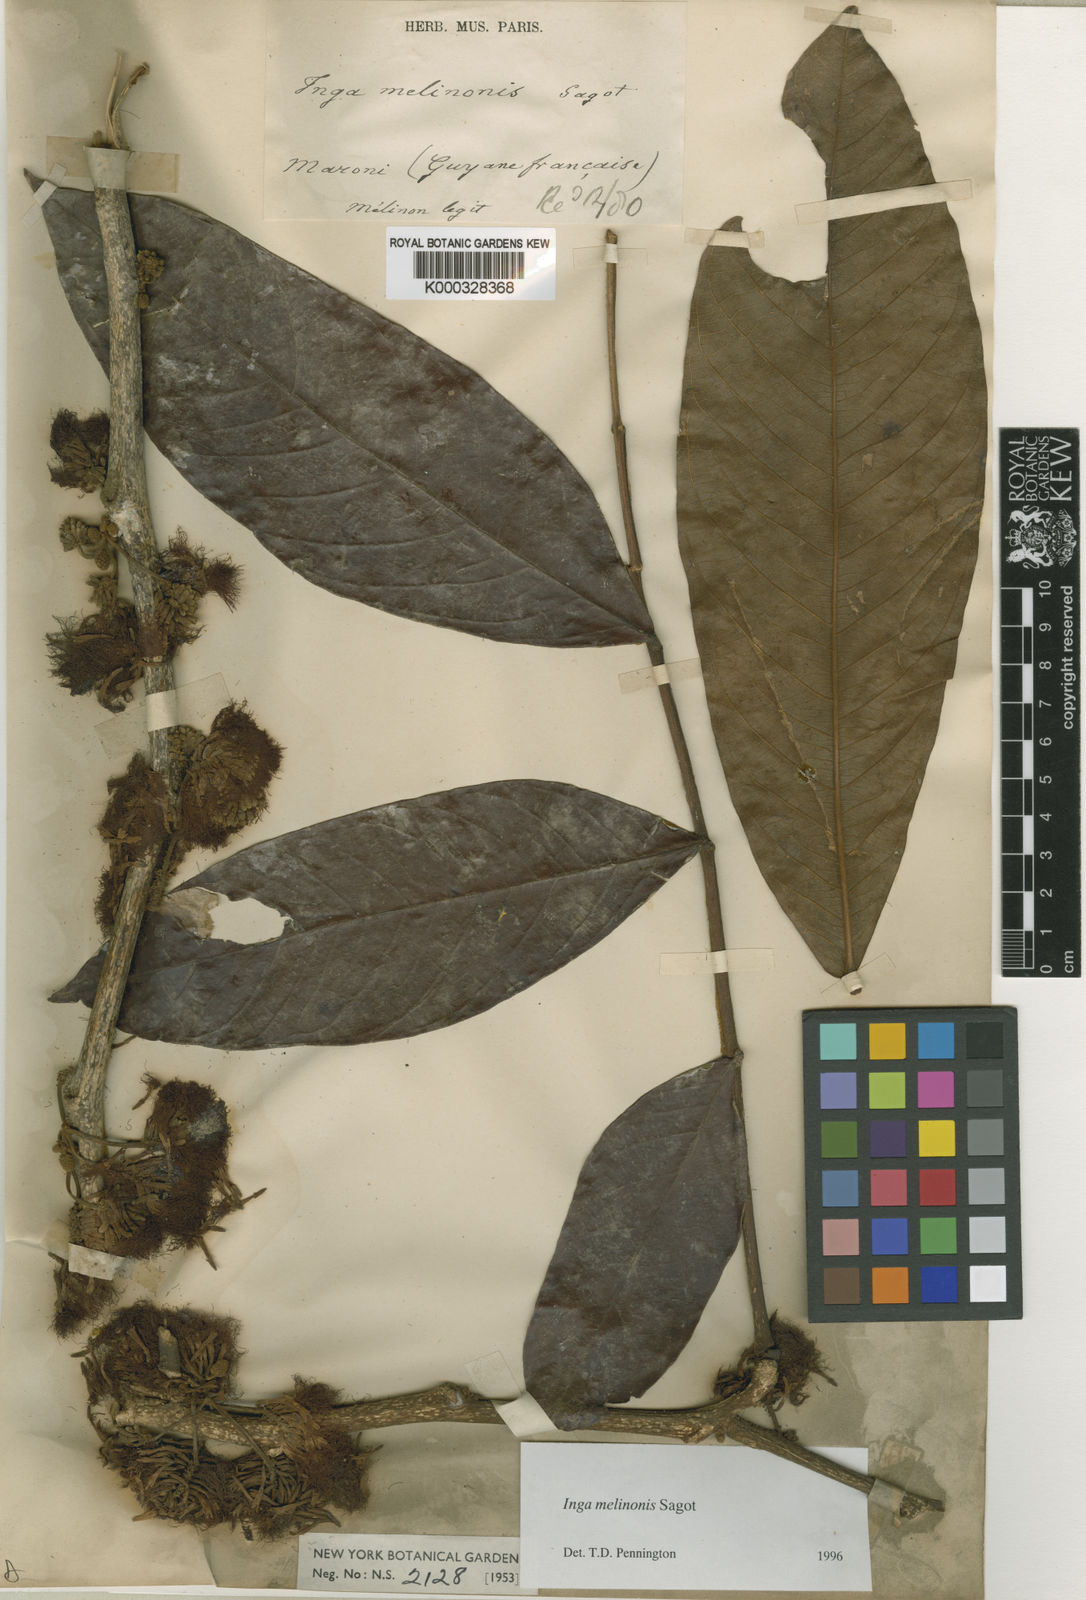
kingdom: Plantae
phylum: Tracheophyta
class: Magnoliopsida
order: Fabales
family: Fabaceae
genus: Inga
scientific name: Inga ruiziana
